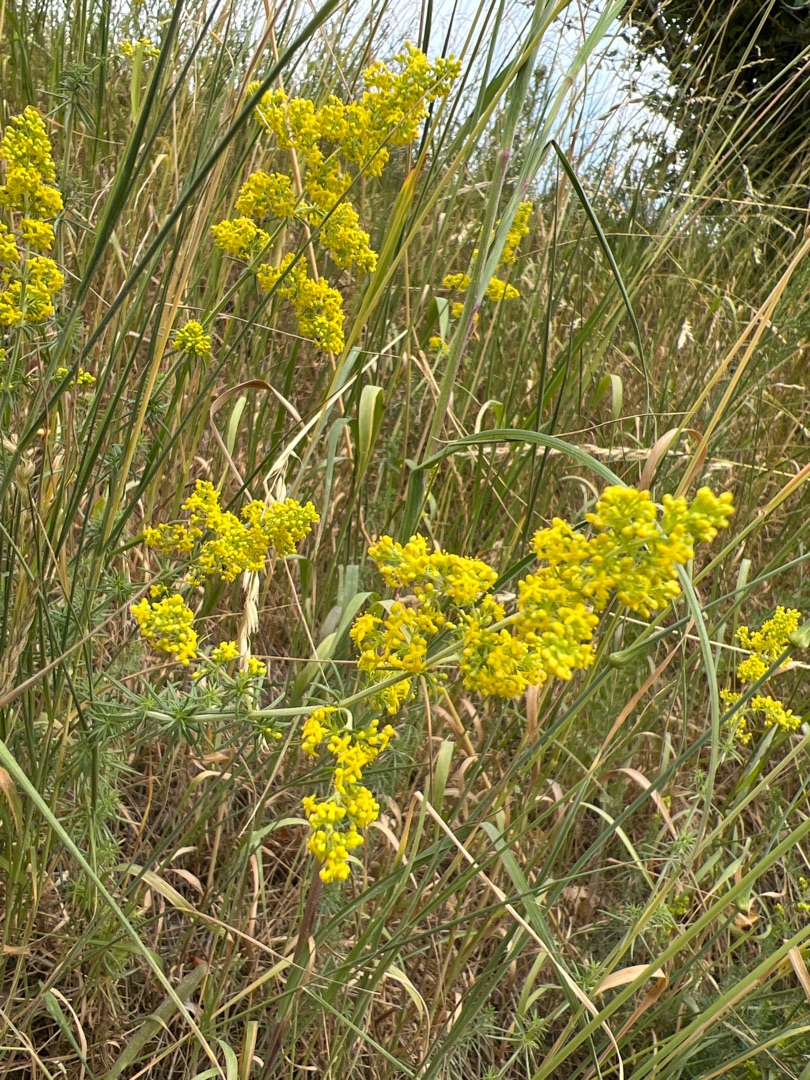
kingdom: Plantae
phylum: Tracheophyta
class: Magnoliopsida
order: Gentianales
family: Rubiaceae
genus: Galium
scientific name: Galium verum
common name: Gul snerre
